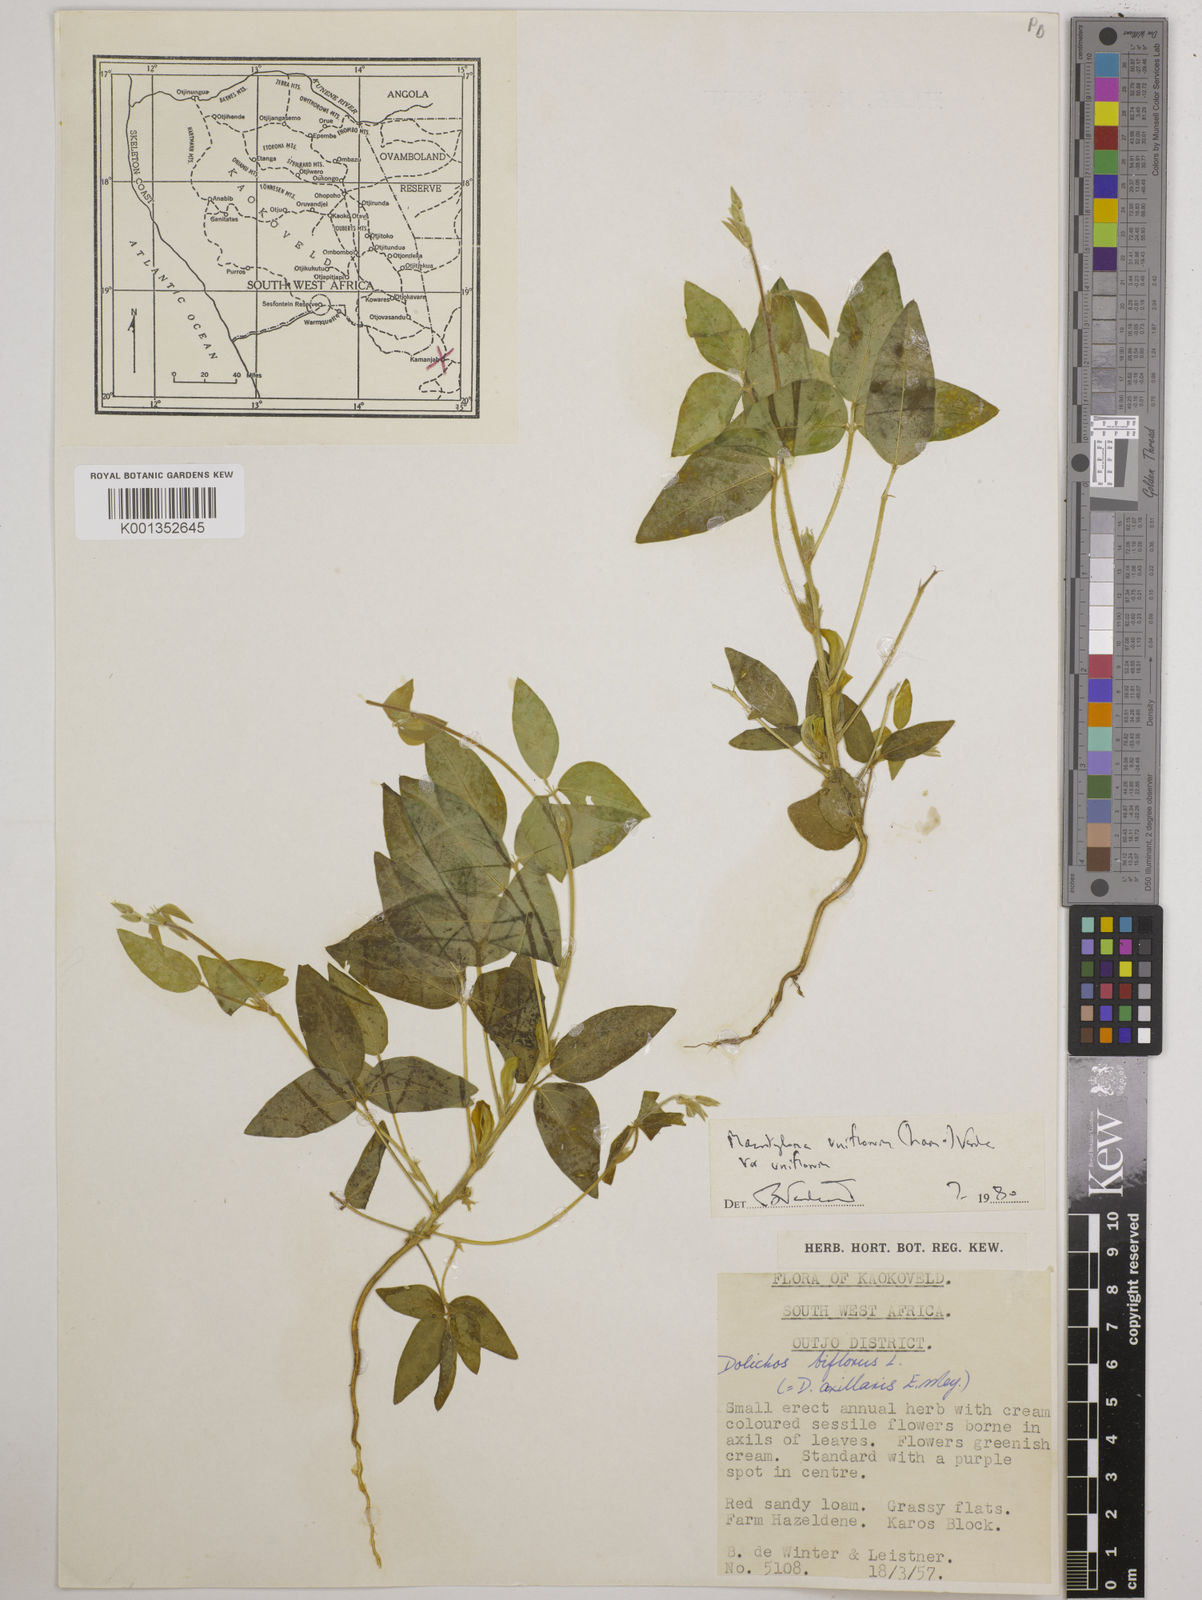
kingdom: Plantae
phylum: Tracheophyta
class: Magnoliopsida
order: Fabales
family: Fabaceae
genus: Macrotyloma
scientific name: Macrotyloma uniflorum
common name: Horse gram
